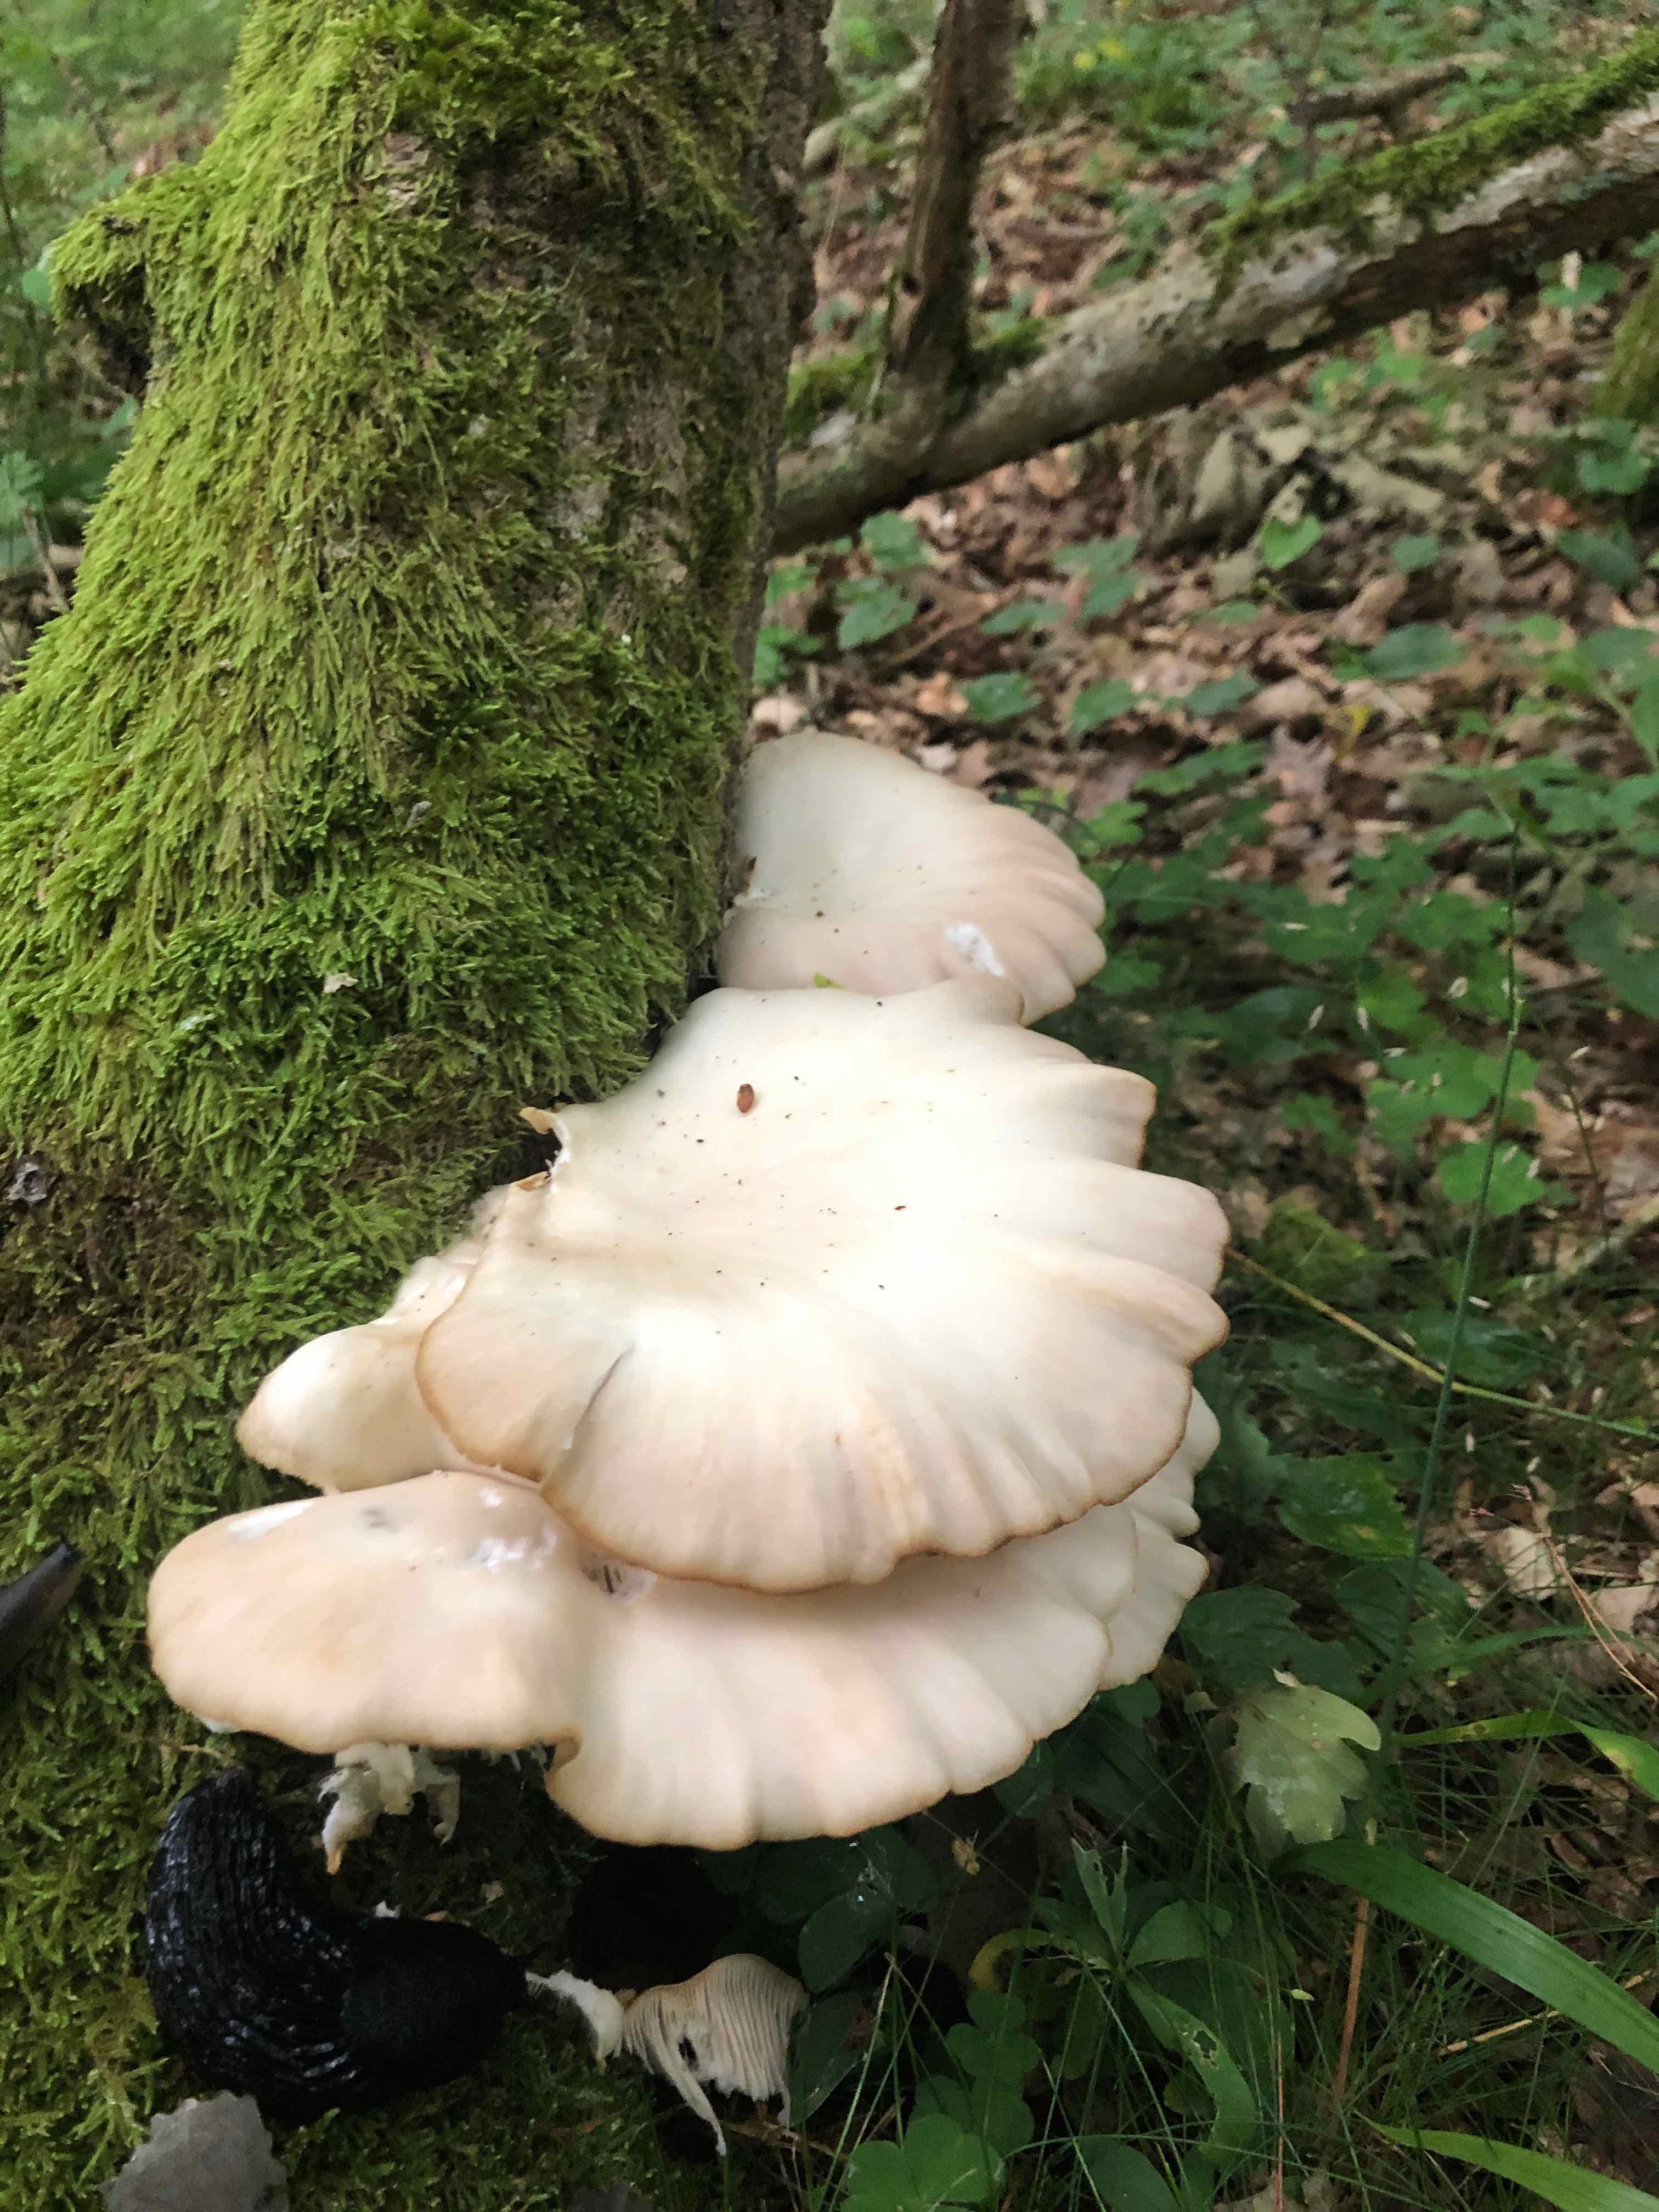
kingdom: Fungi
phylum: Basidiomycota
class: Agaricomycetes
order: Agaricales
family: Pleurotaceae
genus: Pleurotus
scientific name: Pleurotus pulmonarius
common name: sommer-østershat
